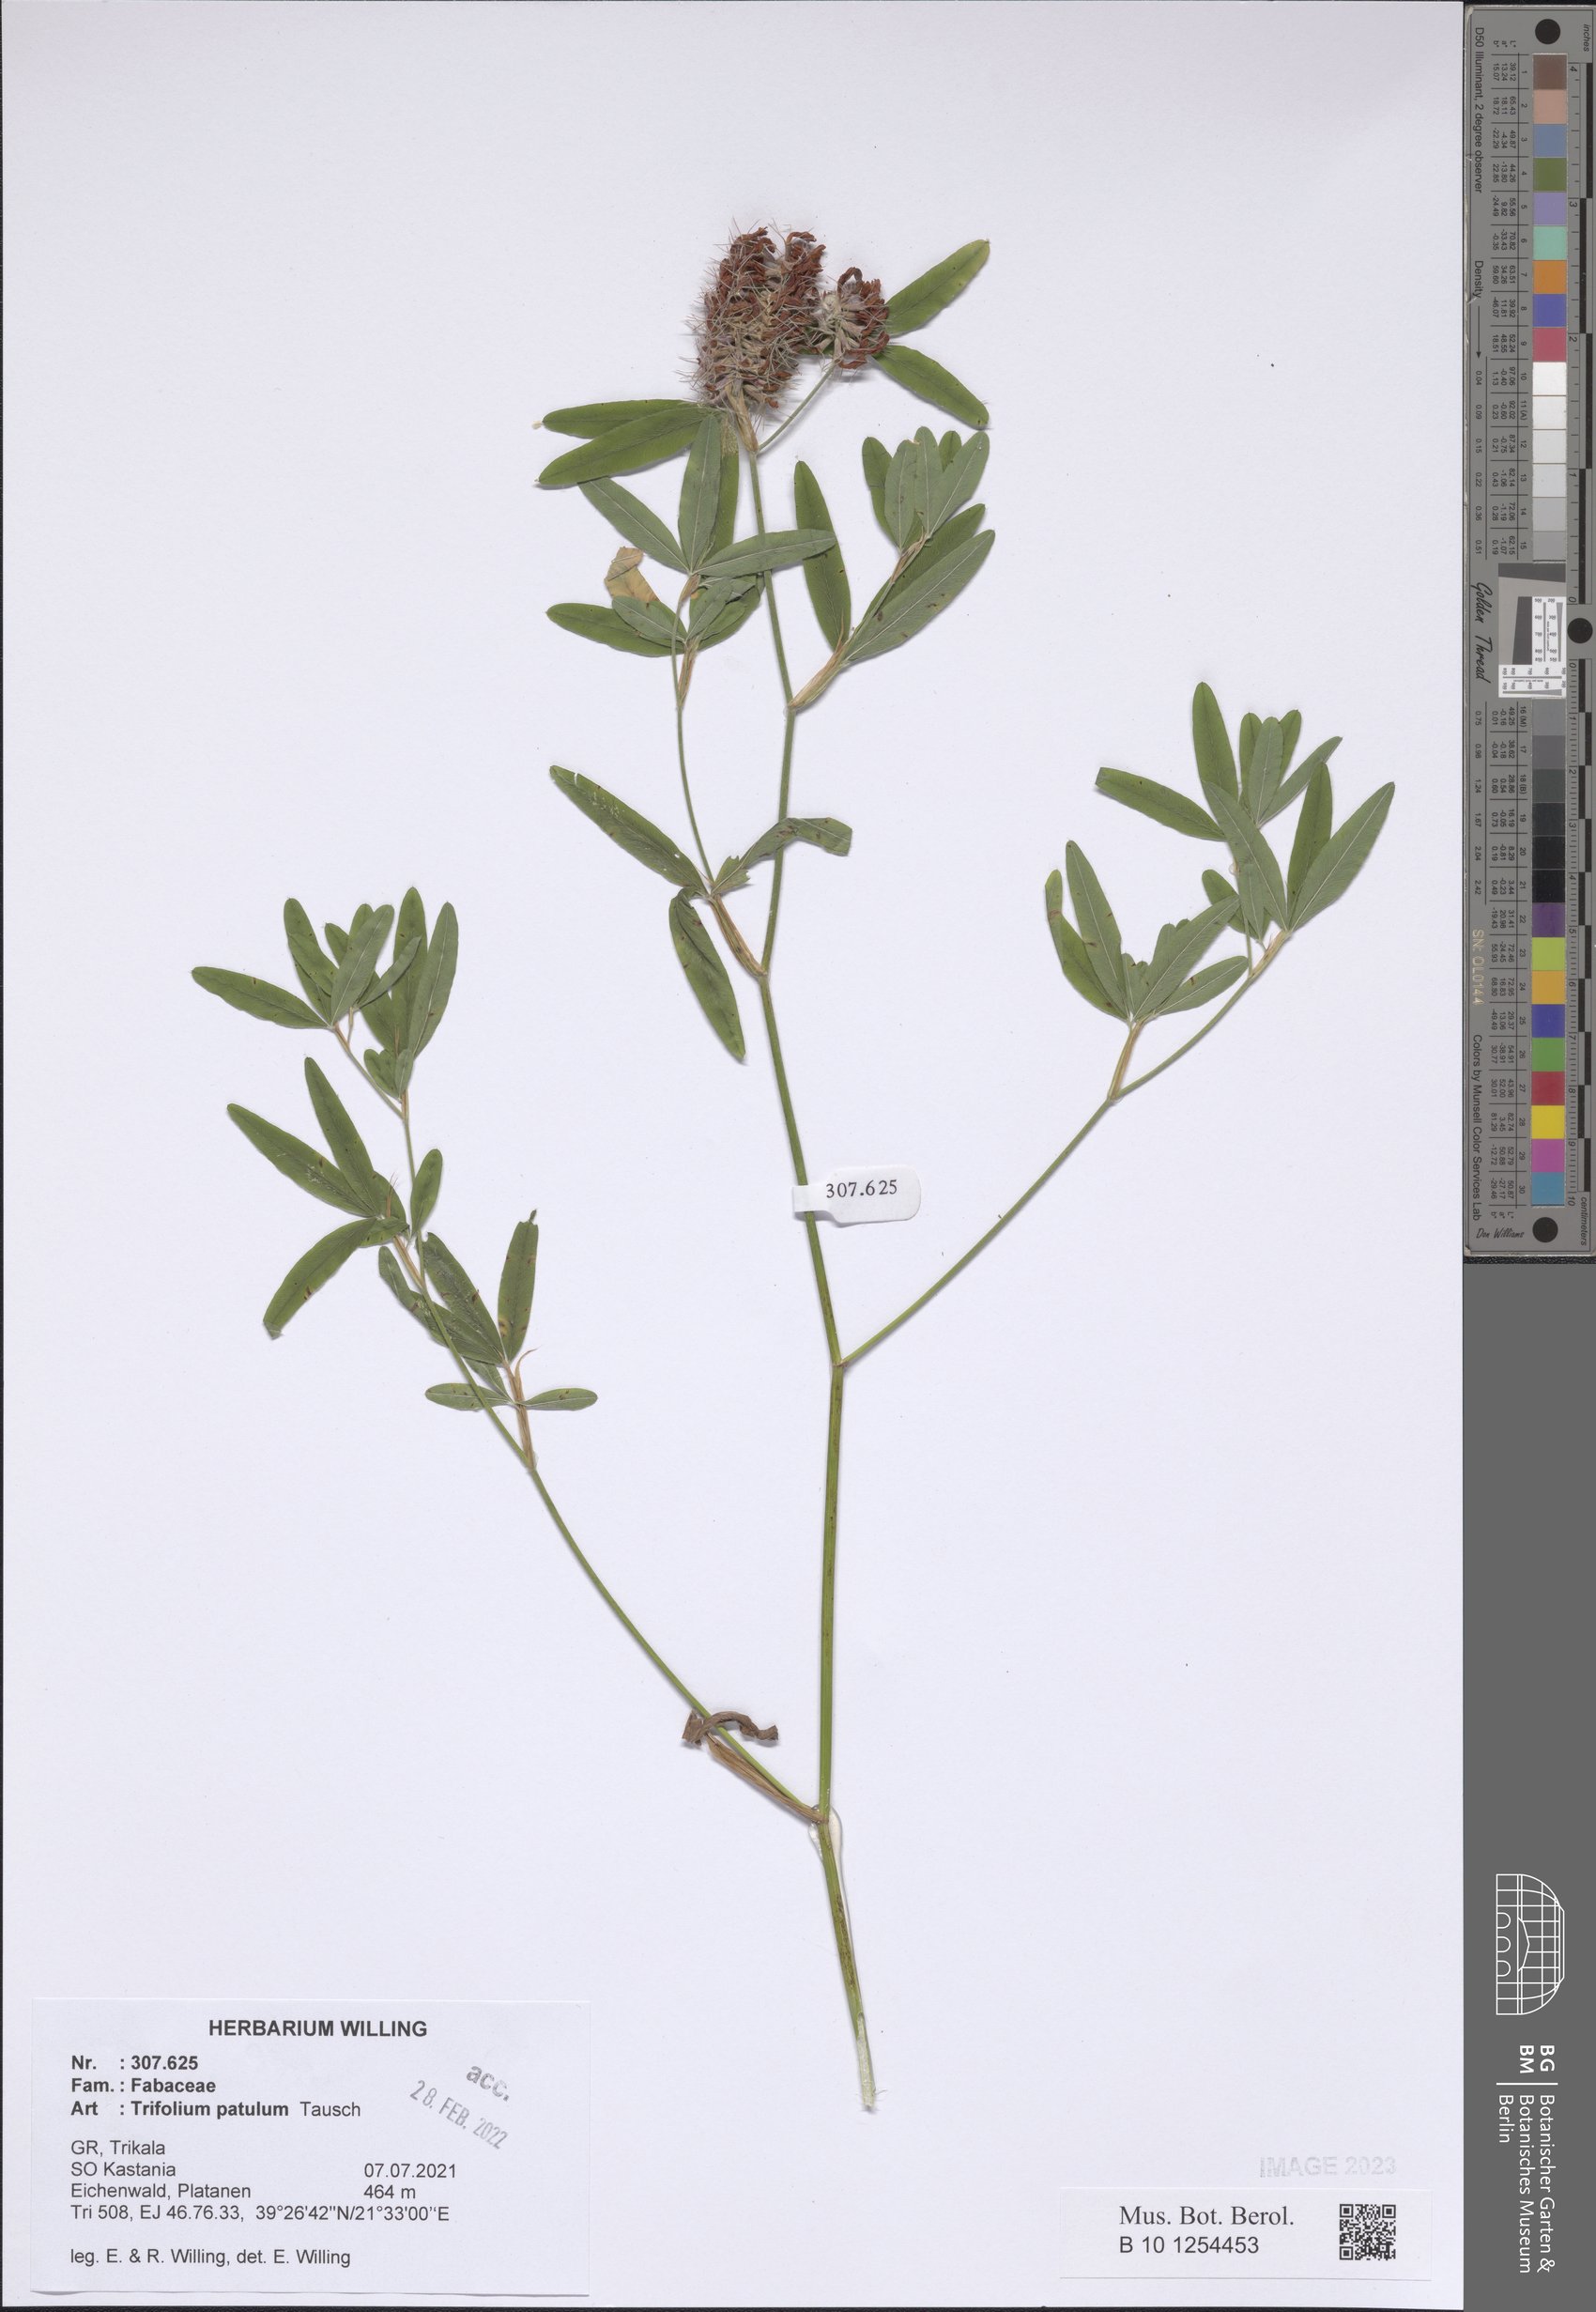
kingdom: Plantae
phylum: Tracheophyta
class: Magnoliopsida
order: Fabales
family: Fabaceae
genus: Trifolium
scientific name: Trifolium patulum
